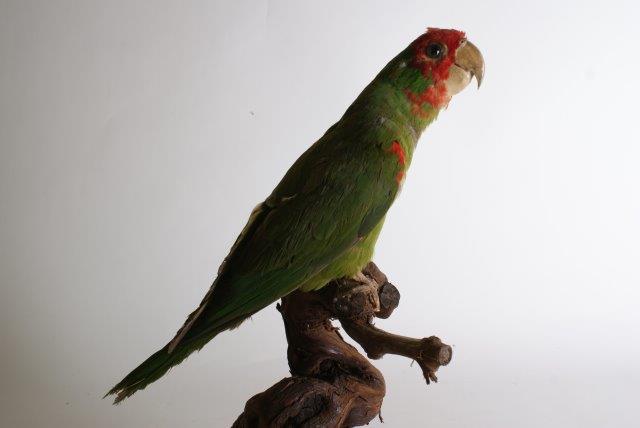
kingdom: Animalia
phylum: Chordata
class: Aves
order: Psittaciformes
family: Psittacidae
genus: Aratinga
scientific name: Aratinga erythrogenys
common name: Red-masked parakeet
